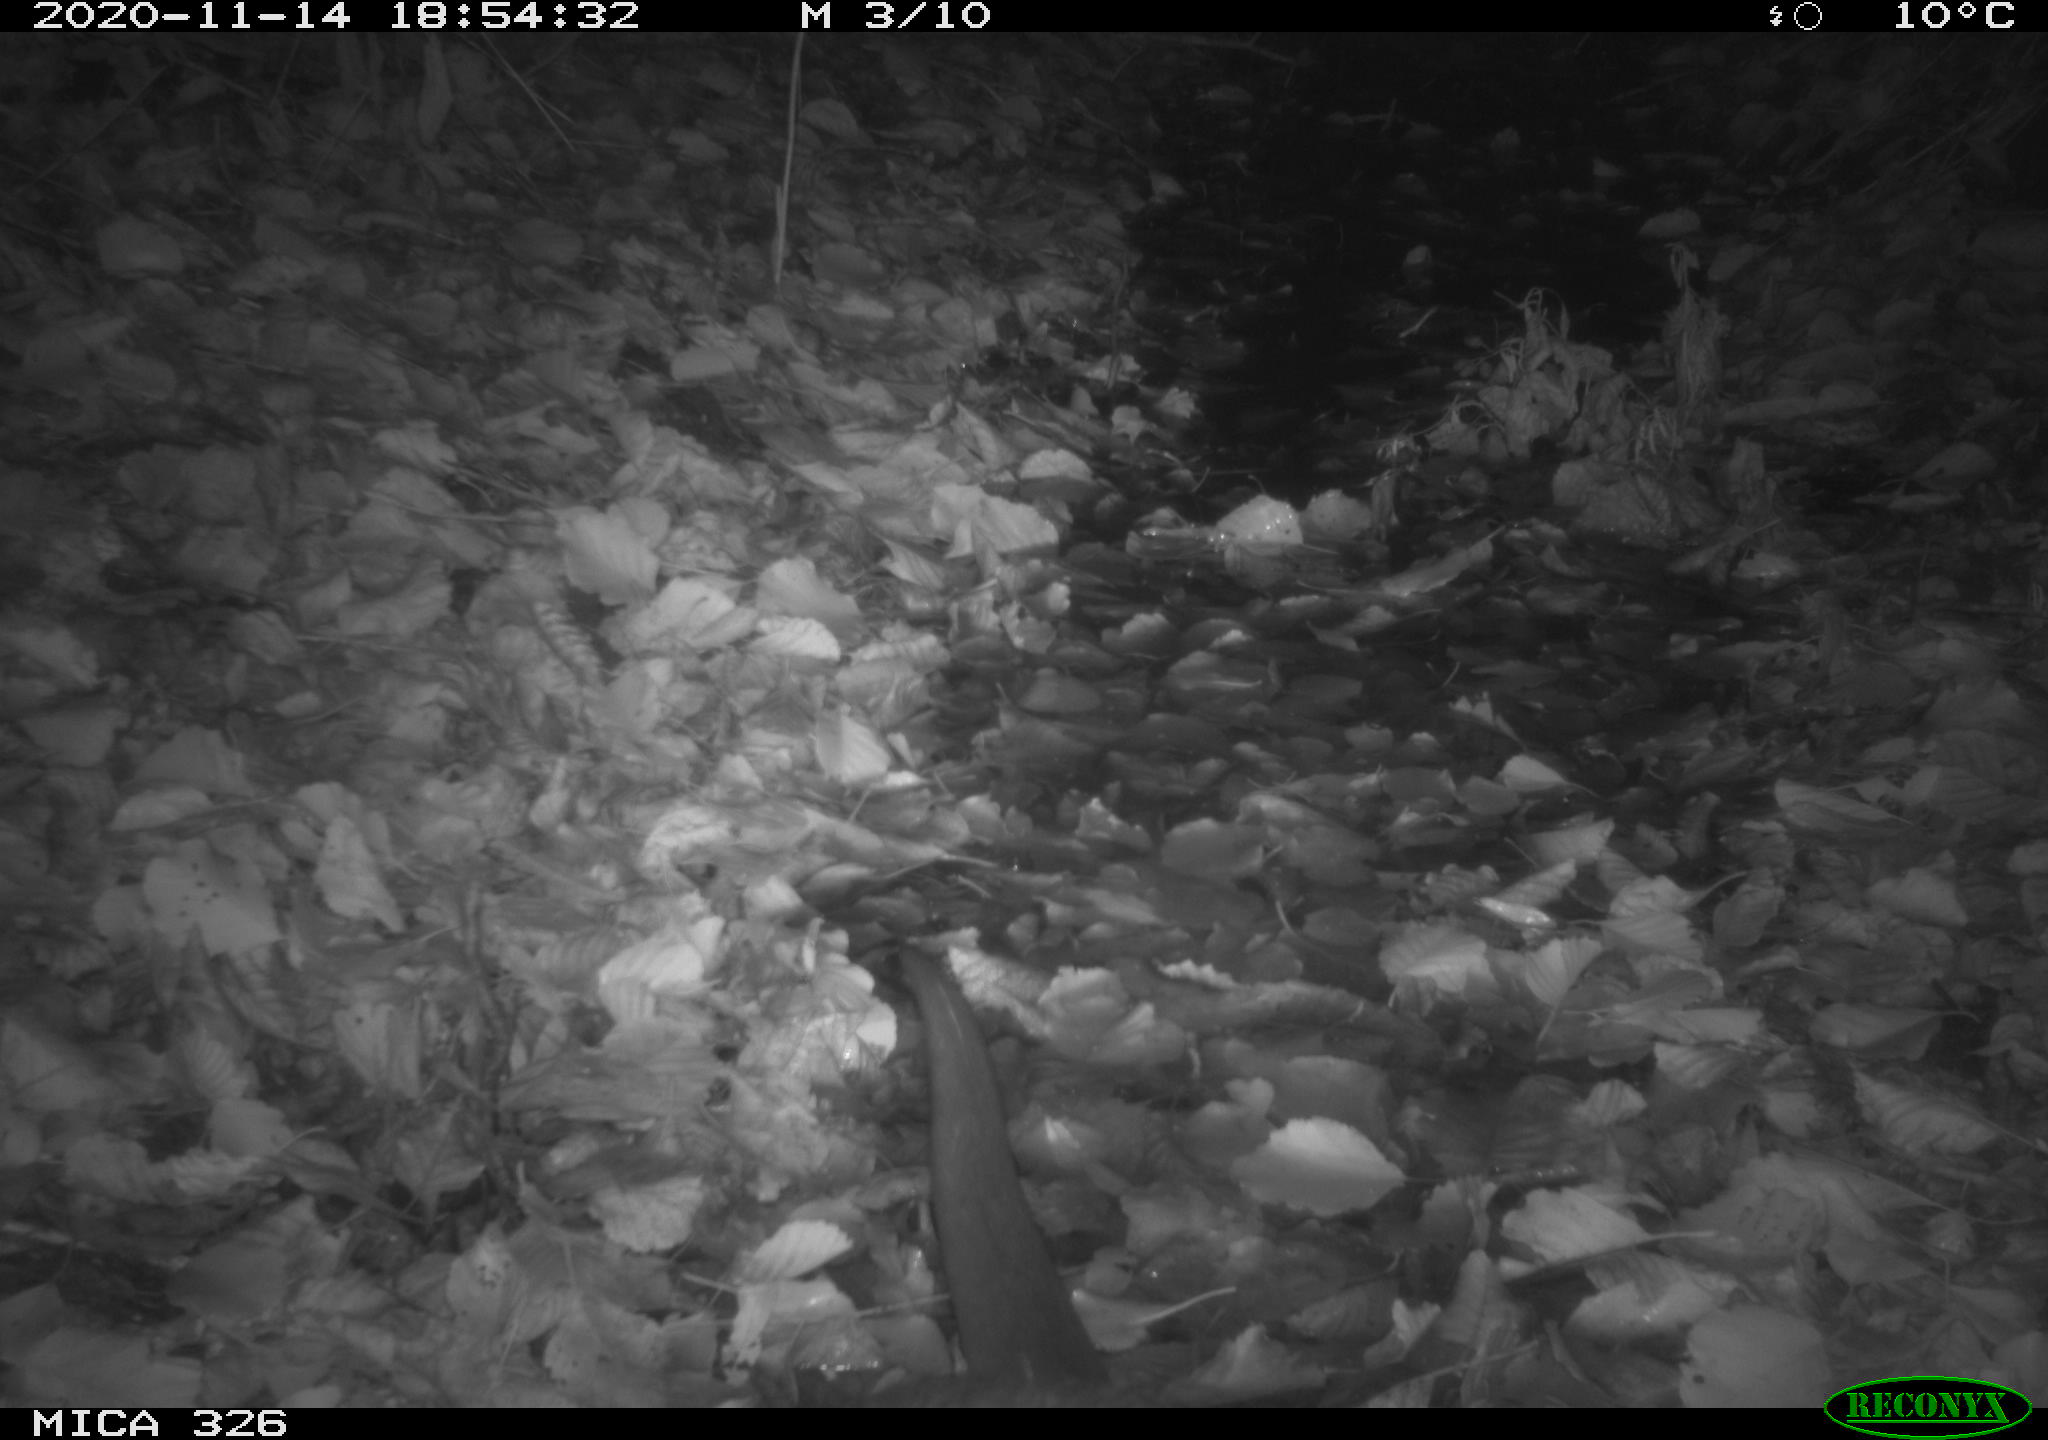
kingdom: Animalia
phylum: Chordata
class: Mammalia
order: Carnivora
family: Mustelidae
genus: Lutra
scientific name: Lutra lutra
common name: European otter
